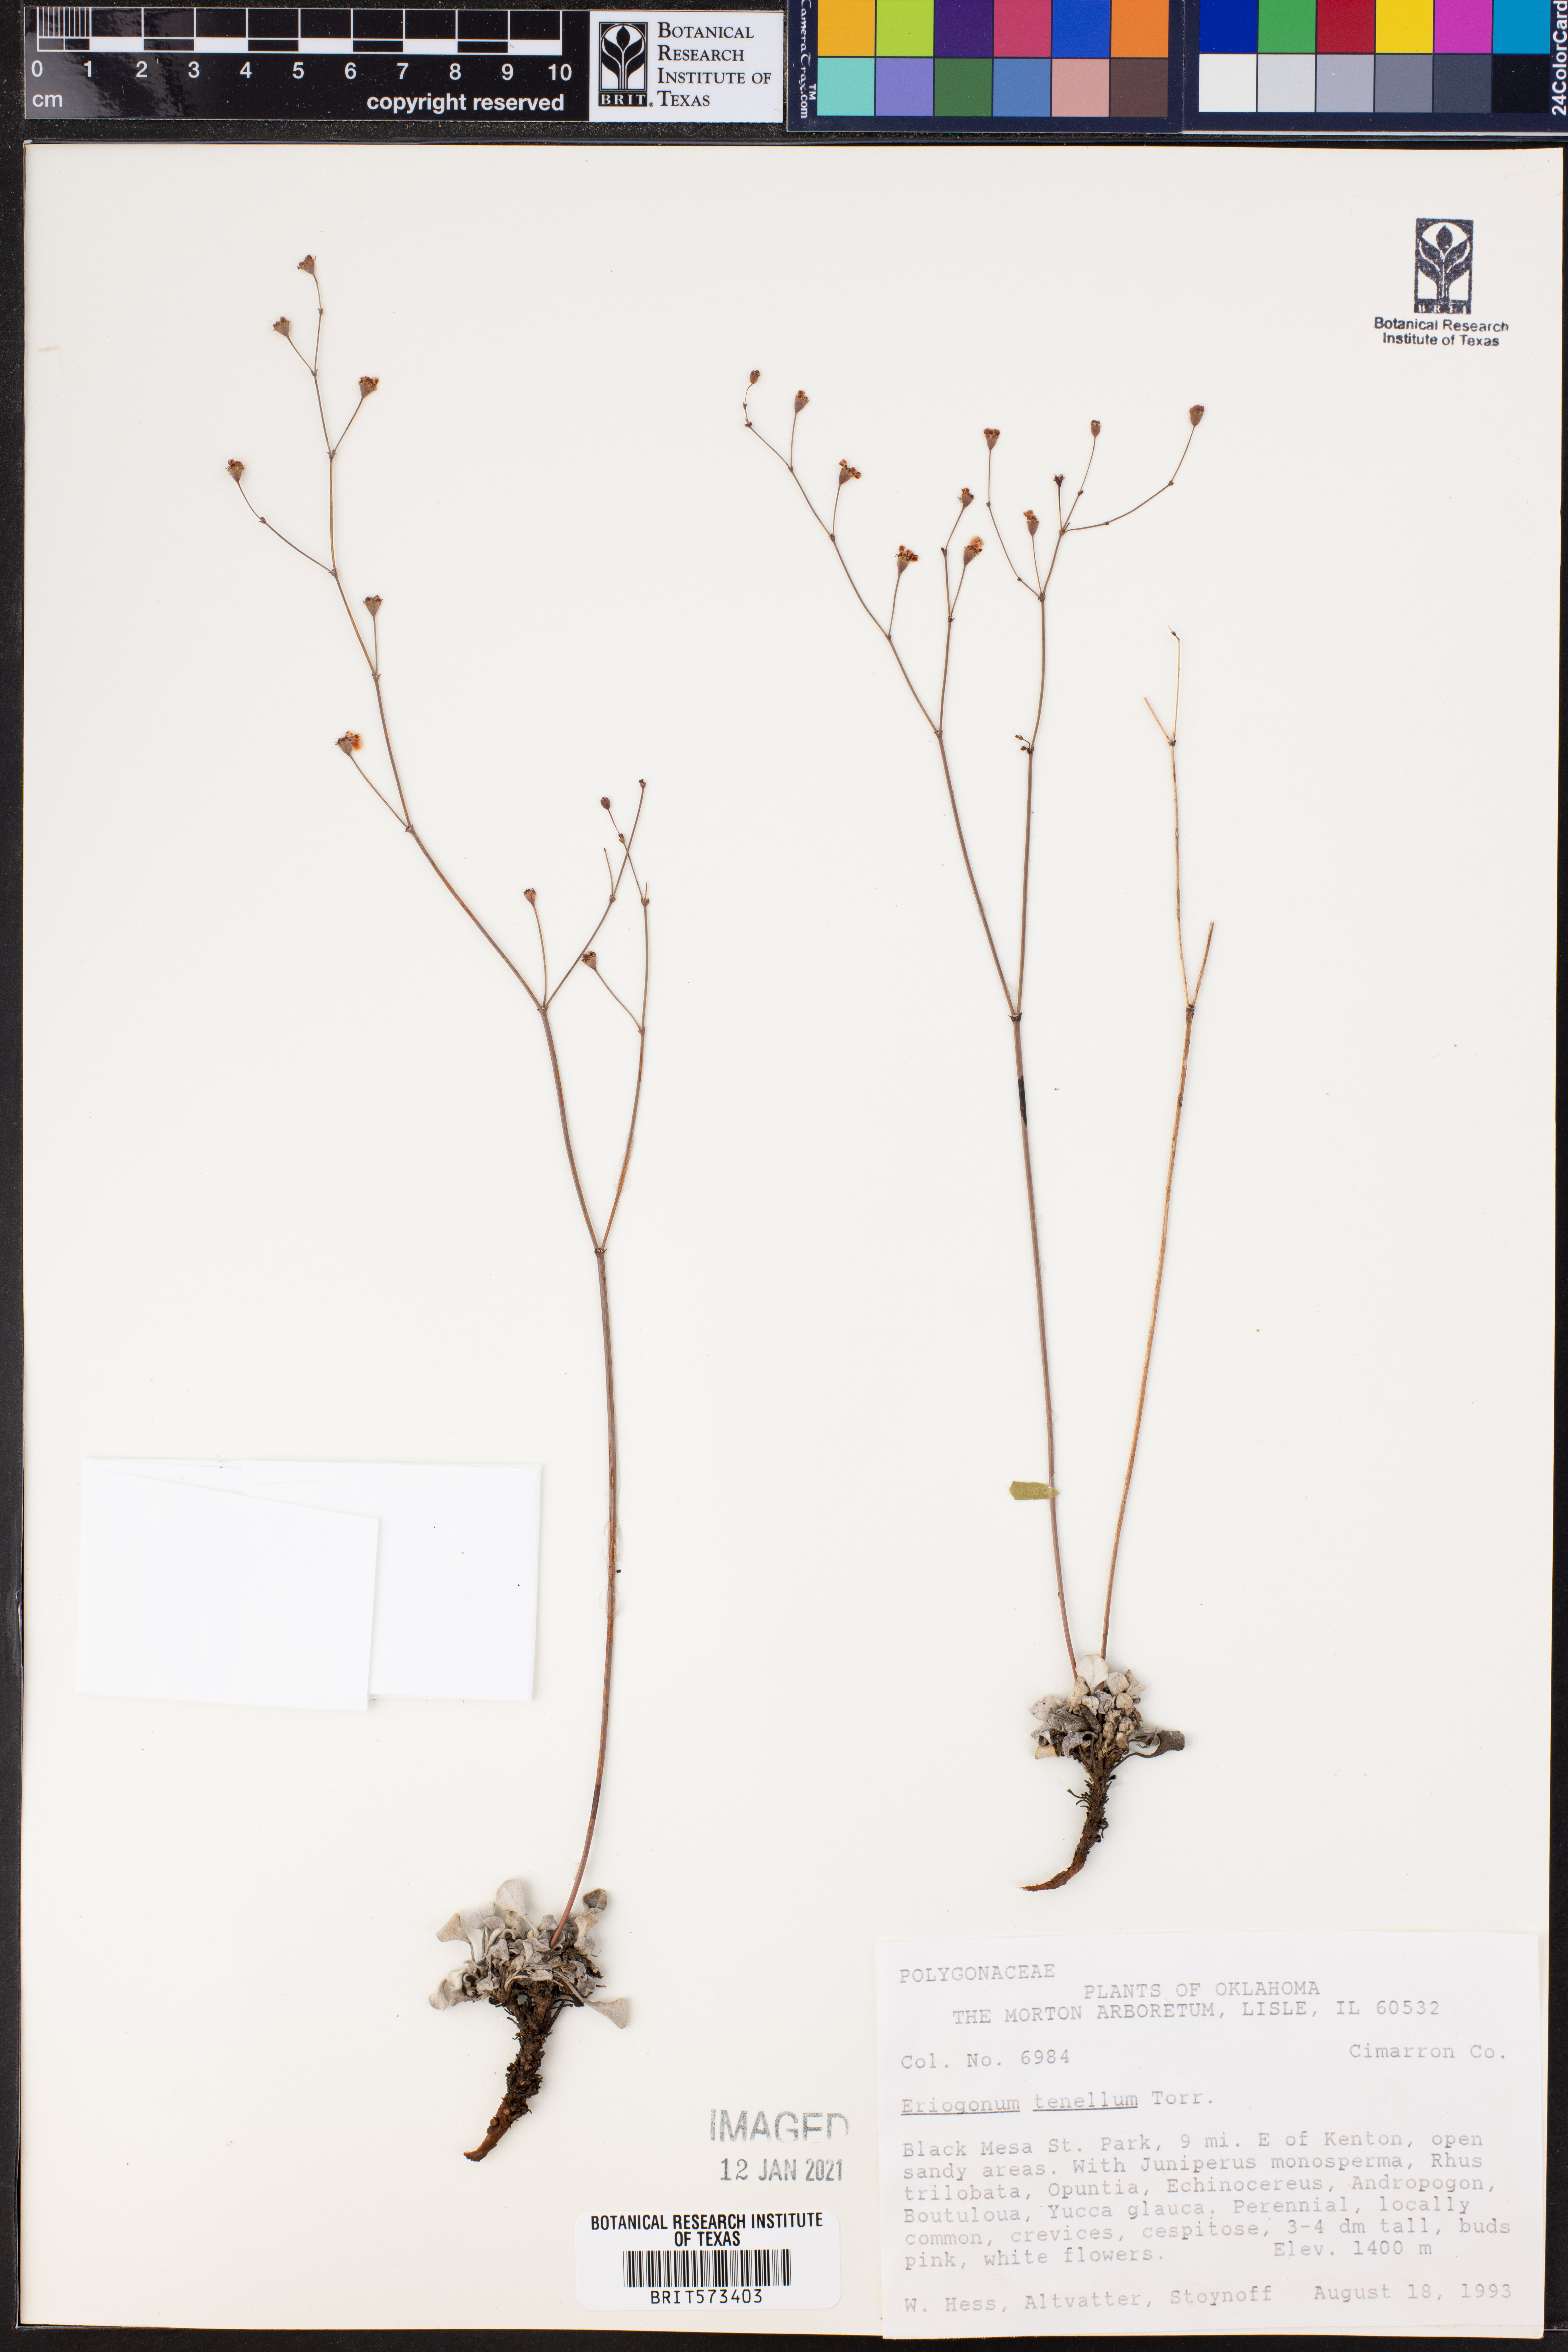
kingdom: Plantae
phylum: Tracheophyta
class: Magnoliopsida
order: Caryophyllales
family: Polygonaceae
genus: Eriogonum
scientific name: Eriogonum tenellum
